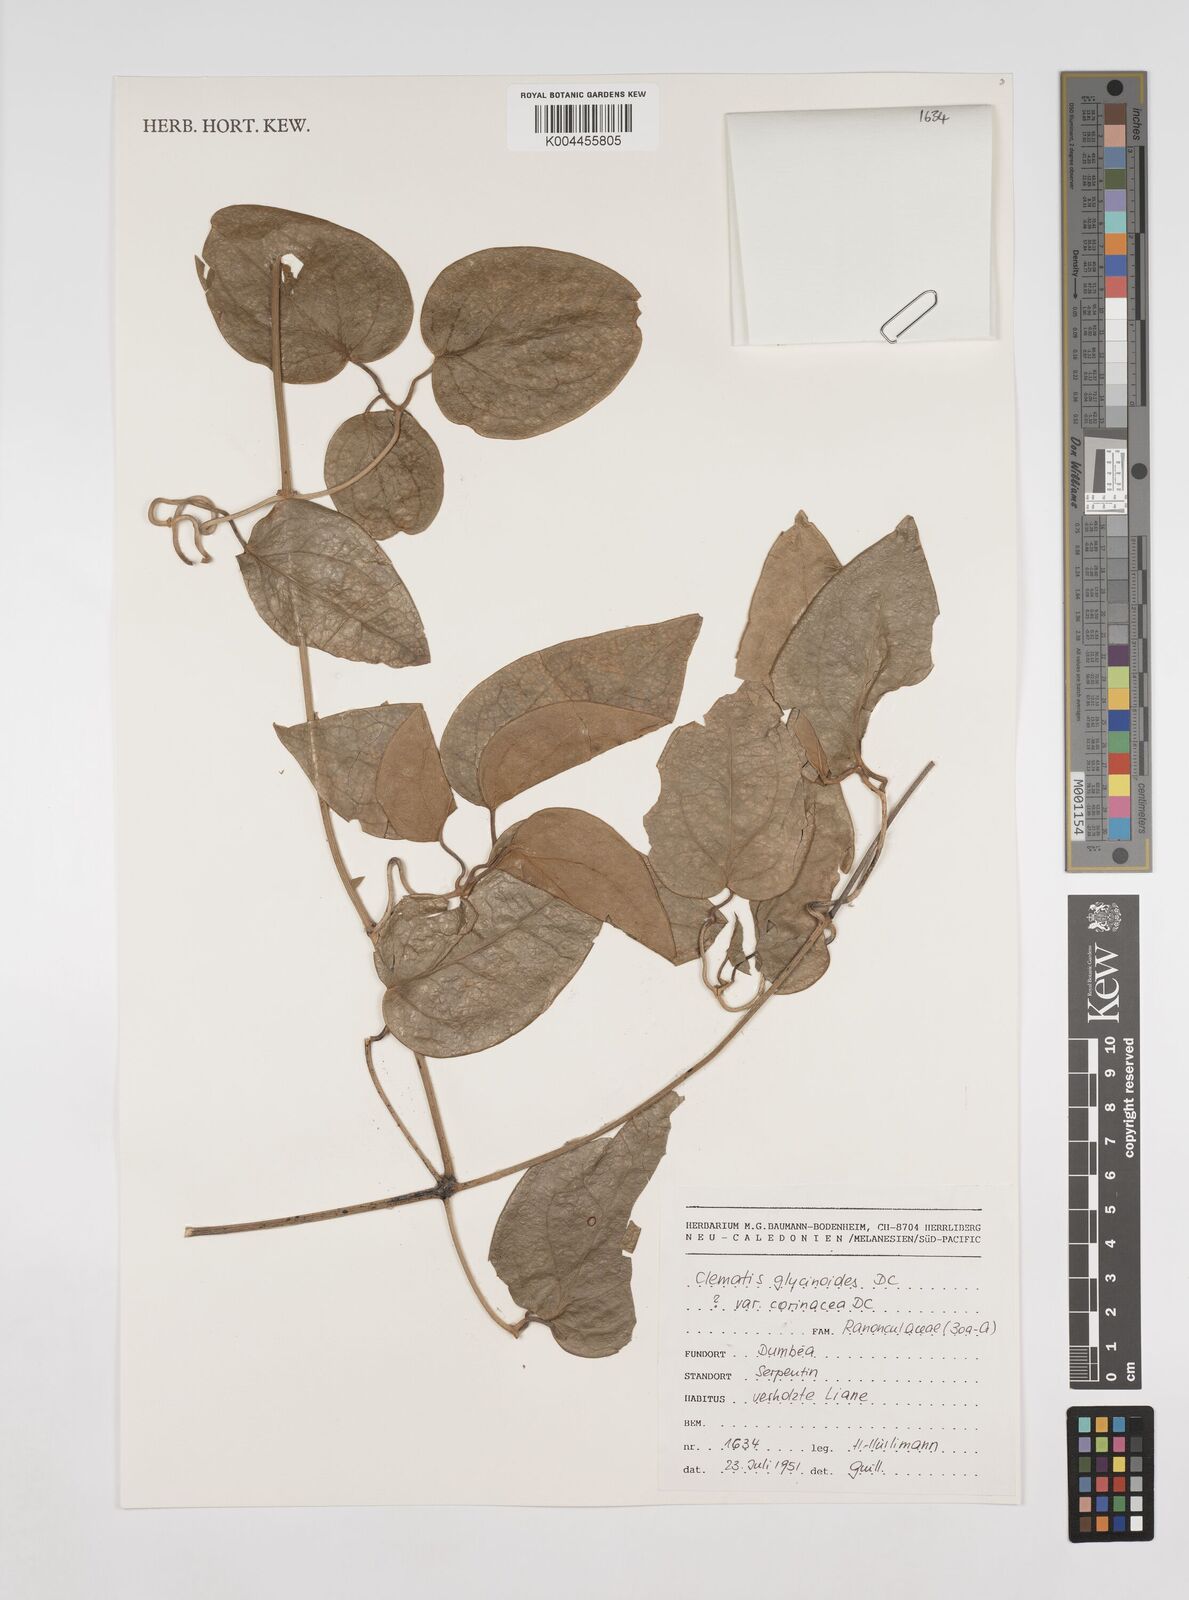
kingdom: Plantae
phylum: Tracheophyta
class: Magnoliopsida
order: Ranunculales
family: Ranunculaceae
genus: Clematis
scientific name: Clematis pickeringii
